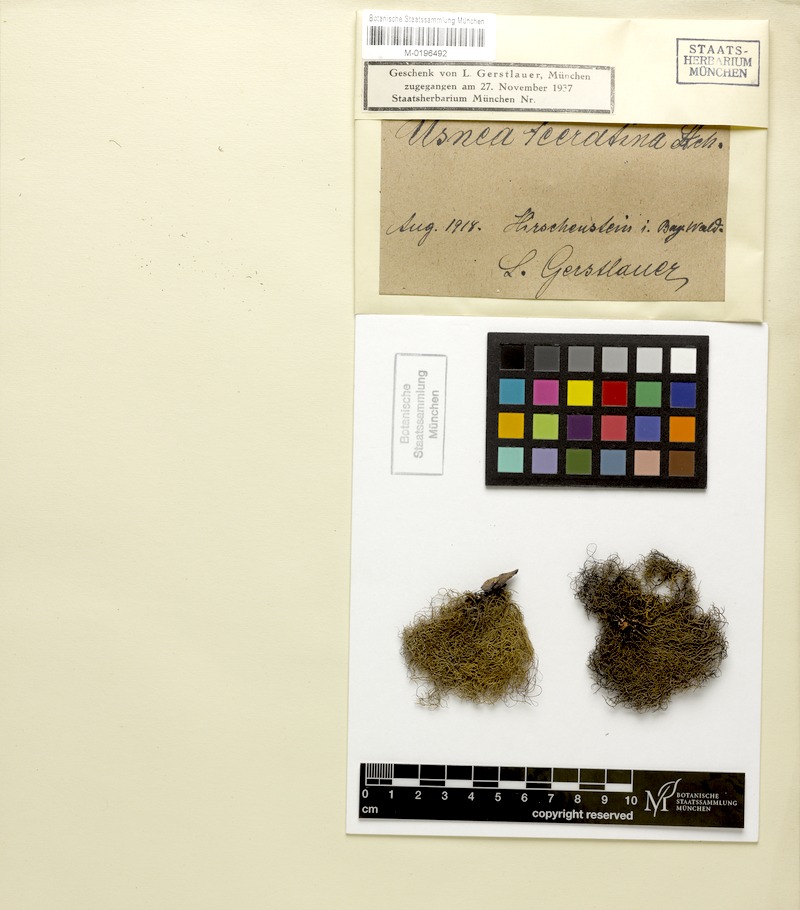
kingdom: Fungi
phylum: Ascomycota
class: Lecanoromycetes
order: Lecanorales
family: Parmeliaceae
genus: Usnea
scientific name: Usnea ceratina
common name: Warty beard lichen
